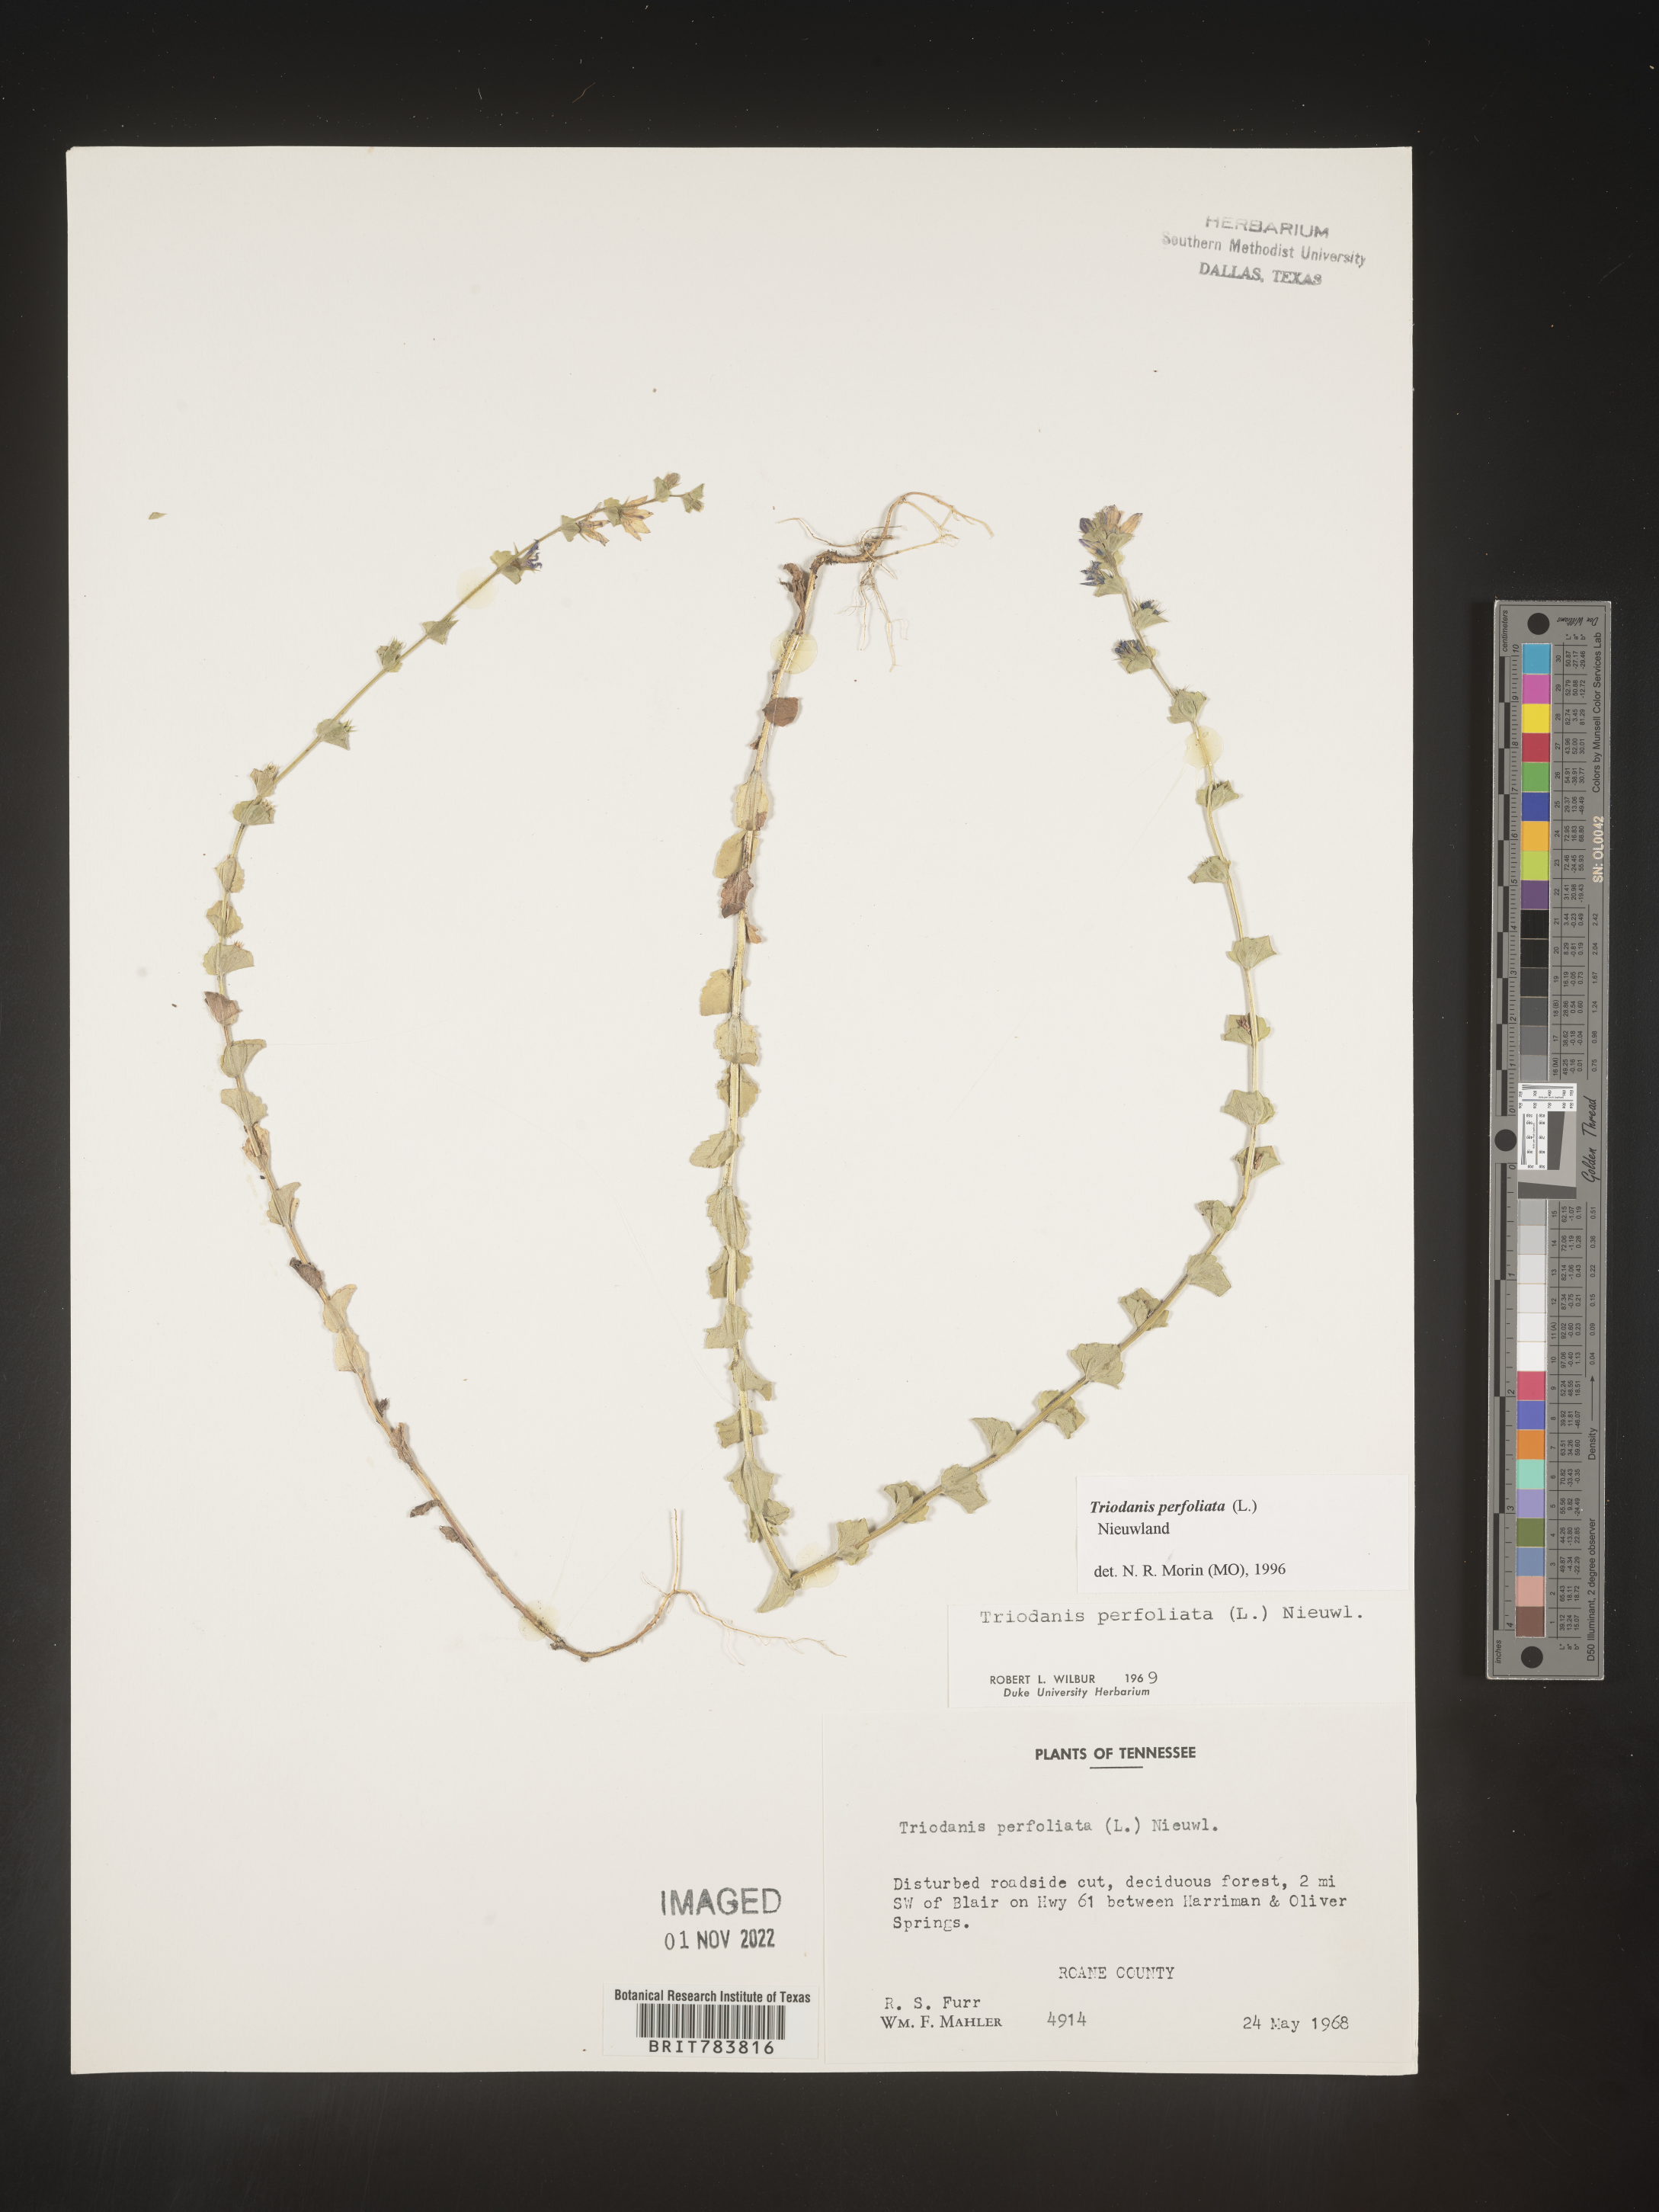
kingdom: Plantae
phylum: Tracheophyta
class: Magnoliopsida
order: Asterales
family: Campanulaceae
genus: Triodanis
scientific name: Triodanis perfoliata
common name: Clasping venus' looking-glass
